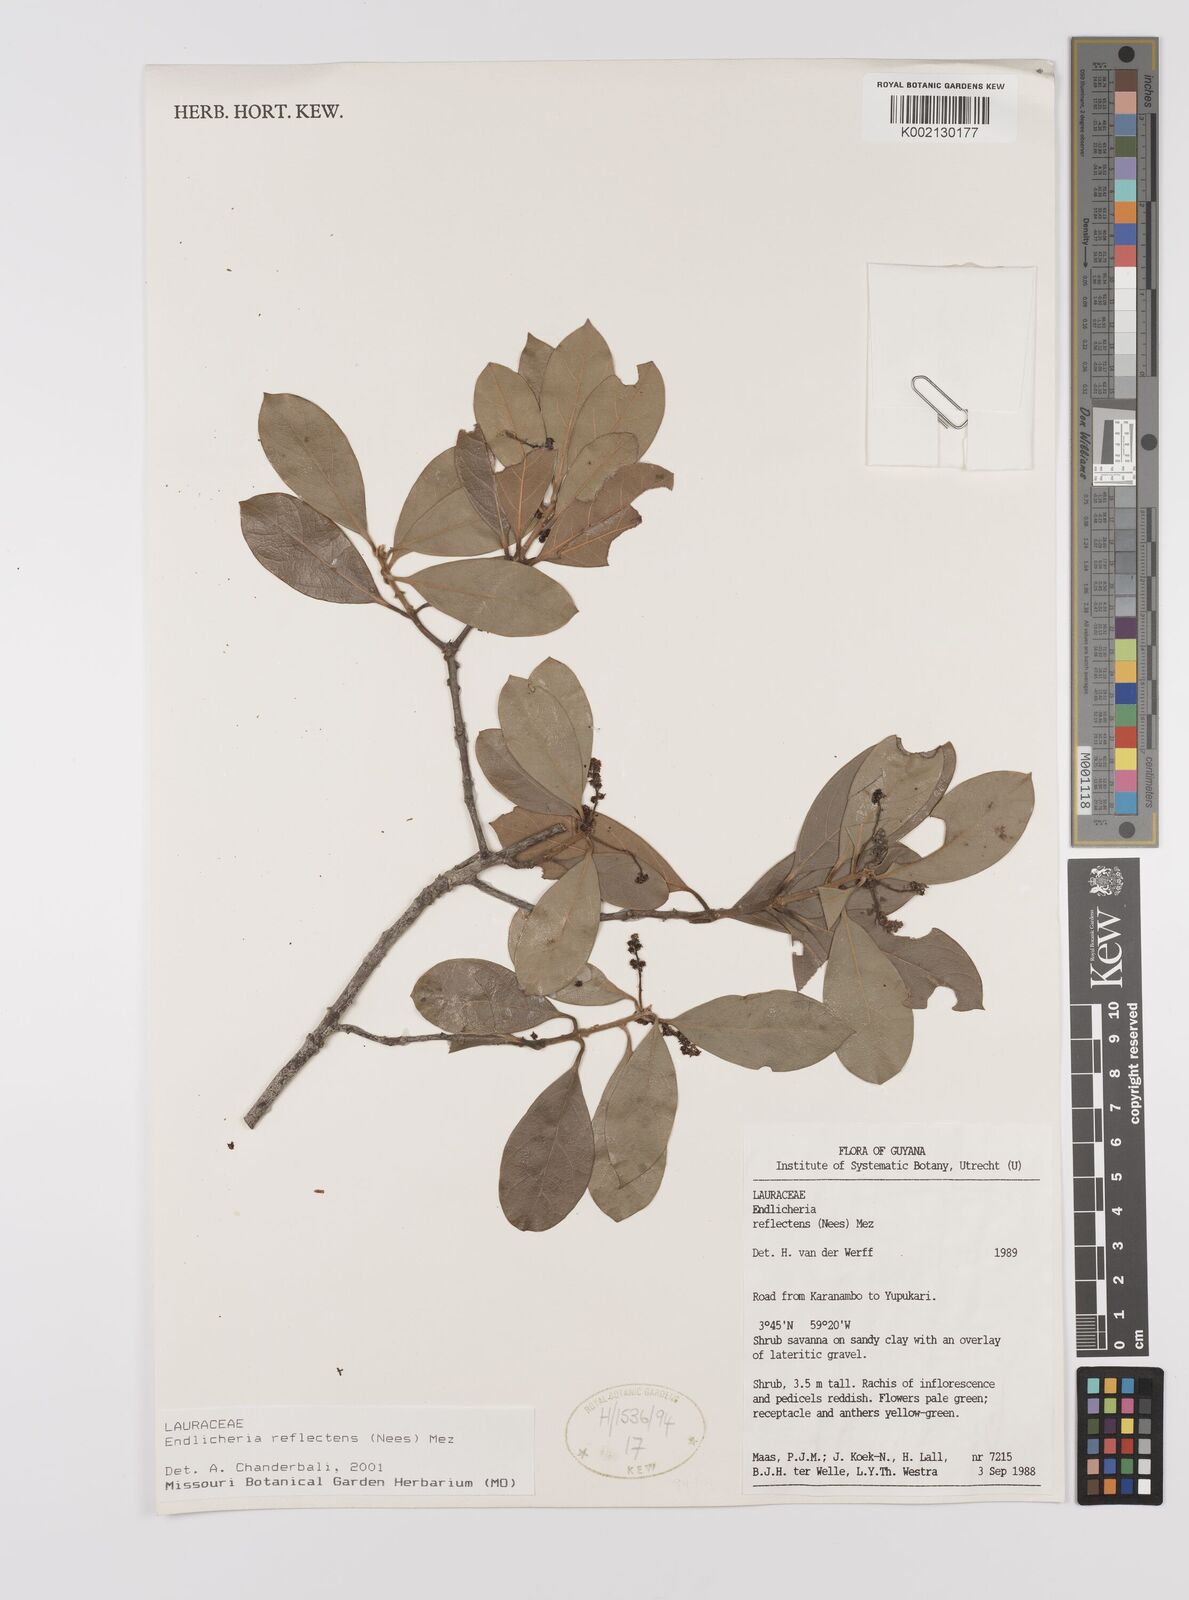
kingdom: Plantae
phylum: Tracheophyta
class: Magnoliopsida
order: Laurales
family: Lauraceae
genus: Endlicheria
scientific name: Endlicheria reflectens
